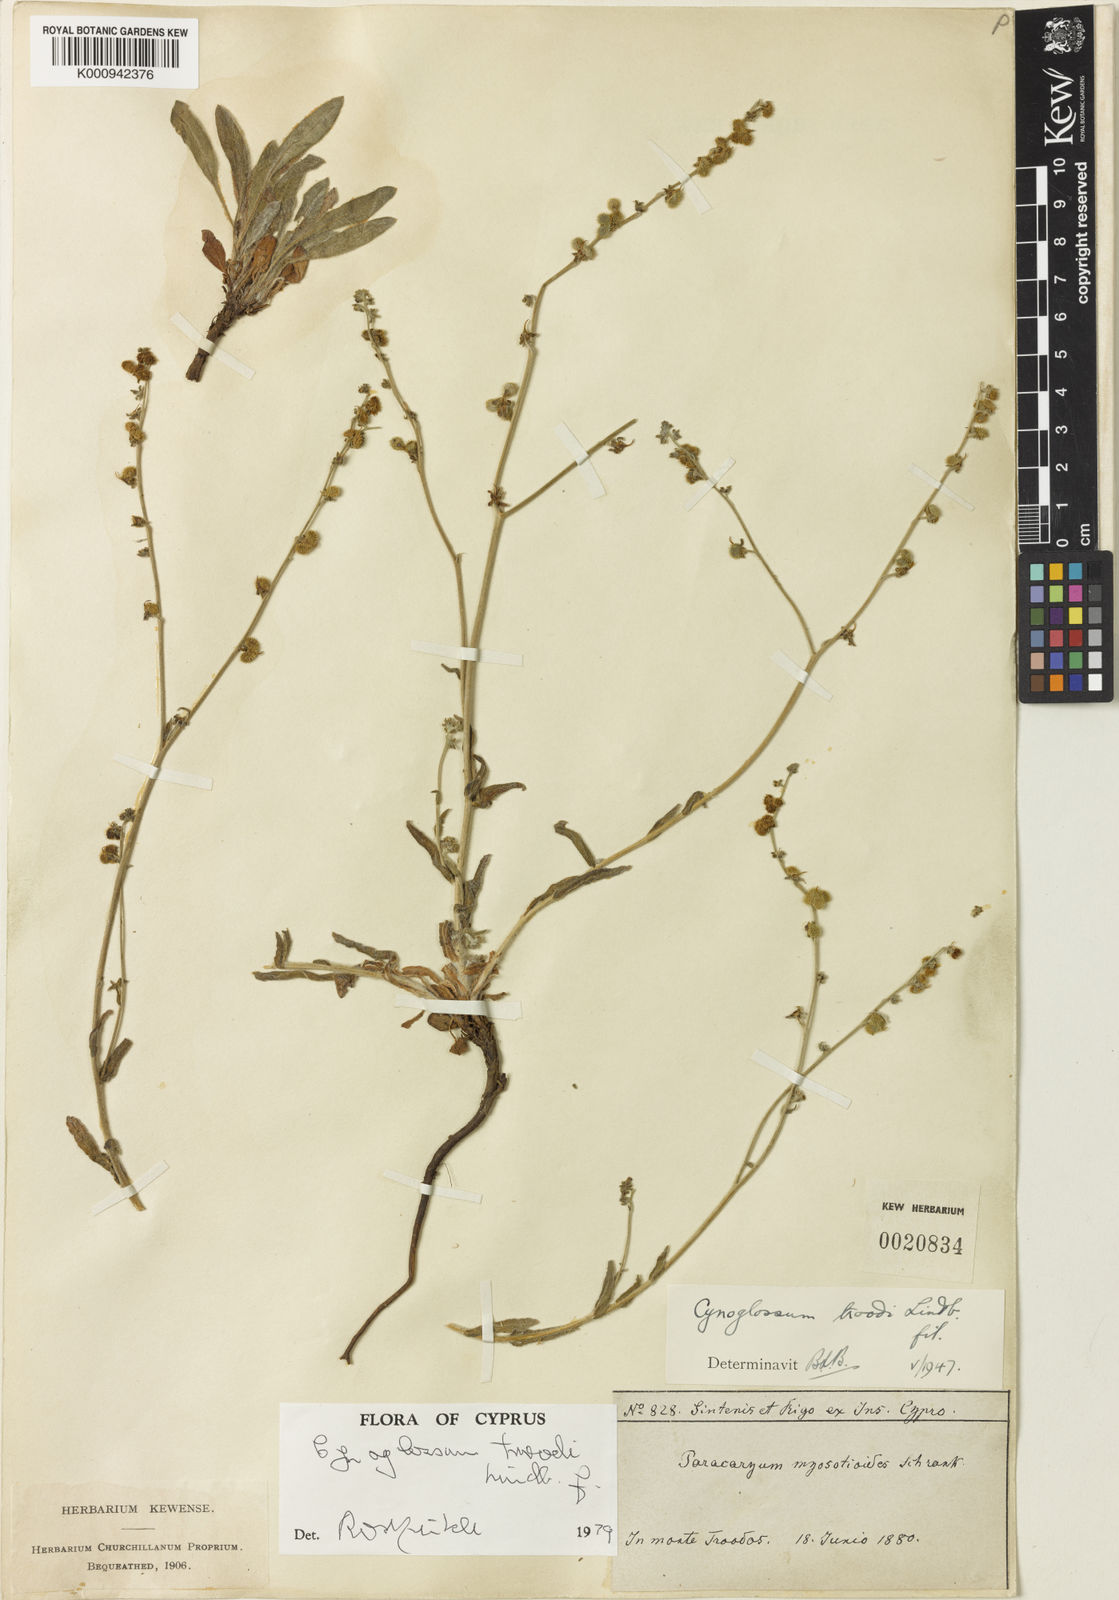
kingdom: Plantae
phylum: Tracheophyta
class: Magnoliopsida
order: Boraginales
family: Boraginaceae
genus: Paracaryum
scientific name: Paracaryum lithospermifolium
